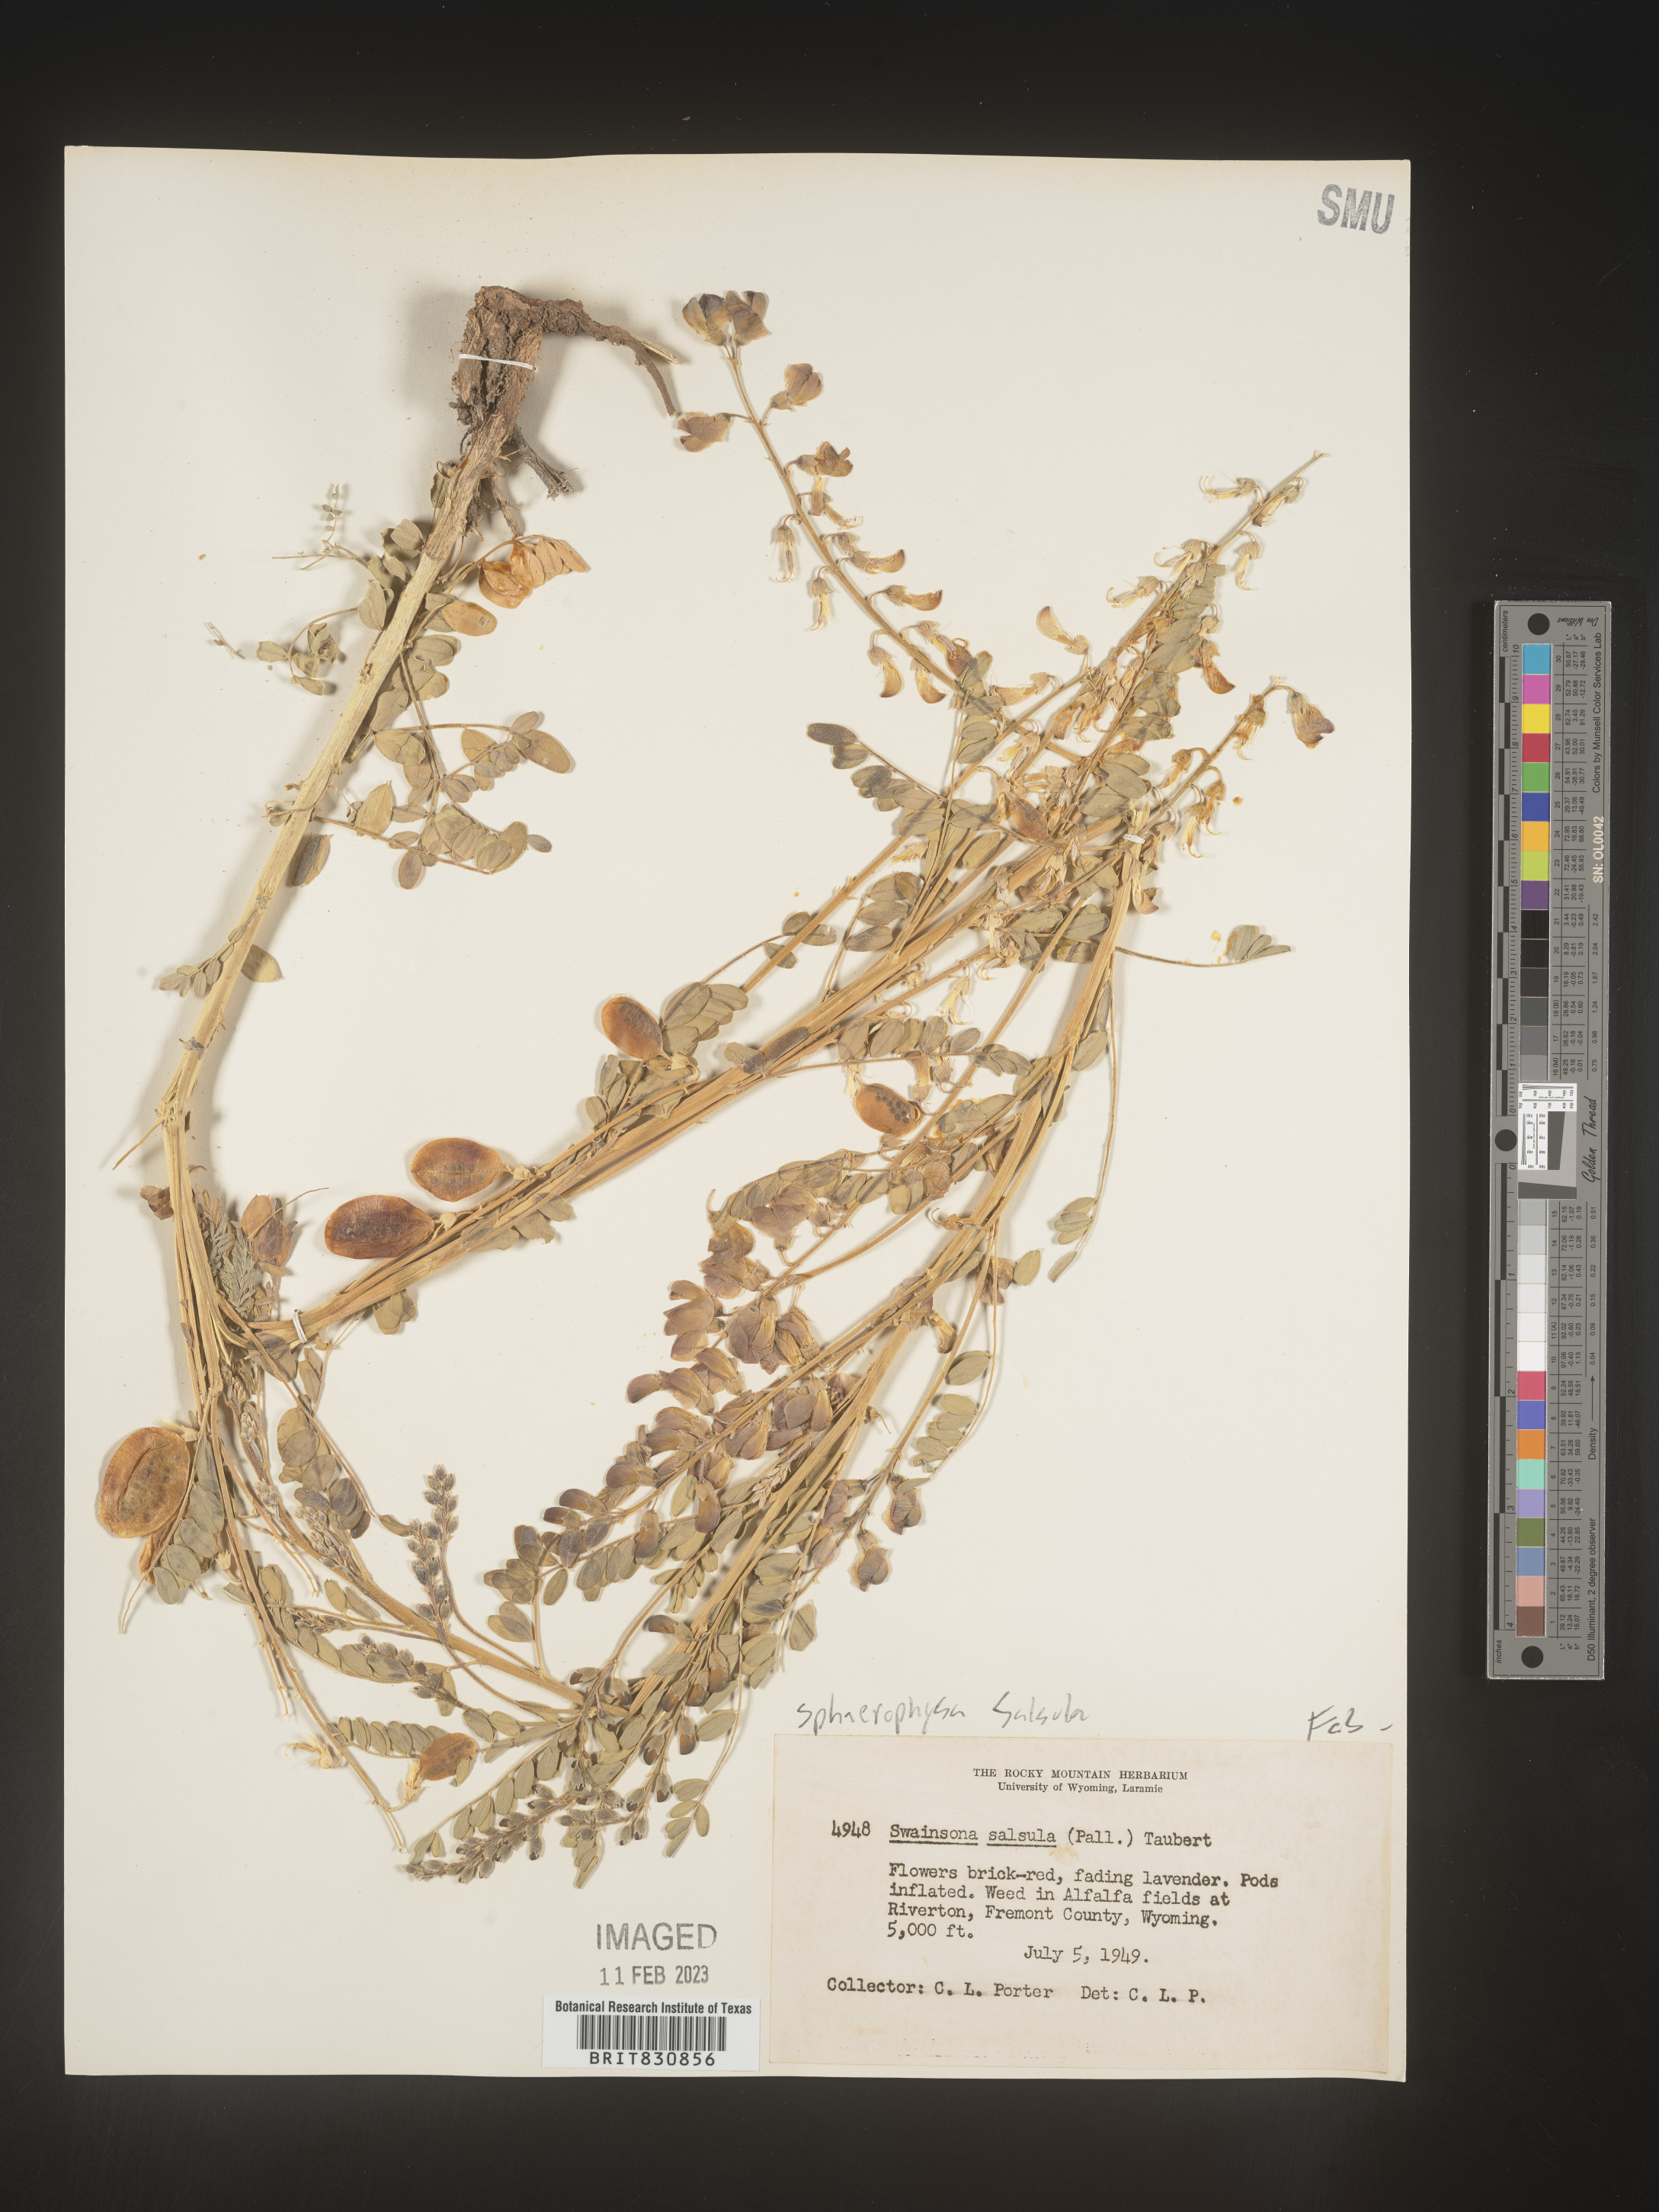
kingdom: Plantae
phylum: Tracheophyta
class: Magnoliopsida
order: Fabales
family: Fabaceae
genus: Sphaerophysa
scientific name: Sphaerophysa
